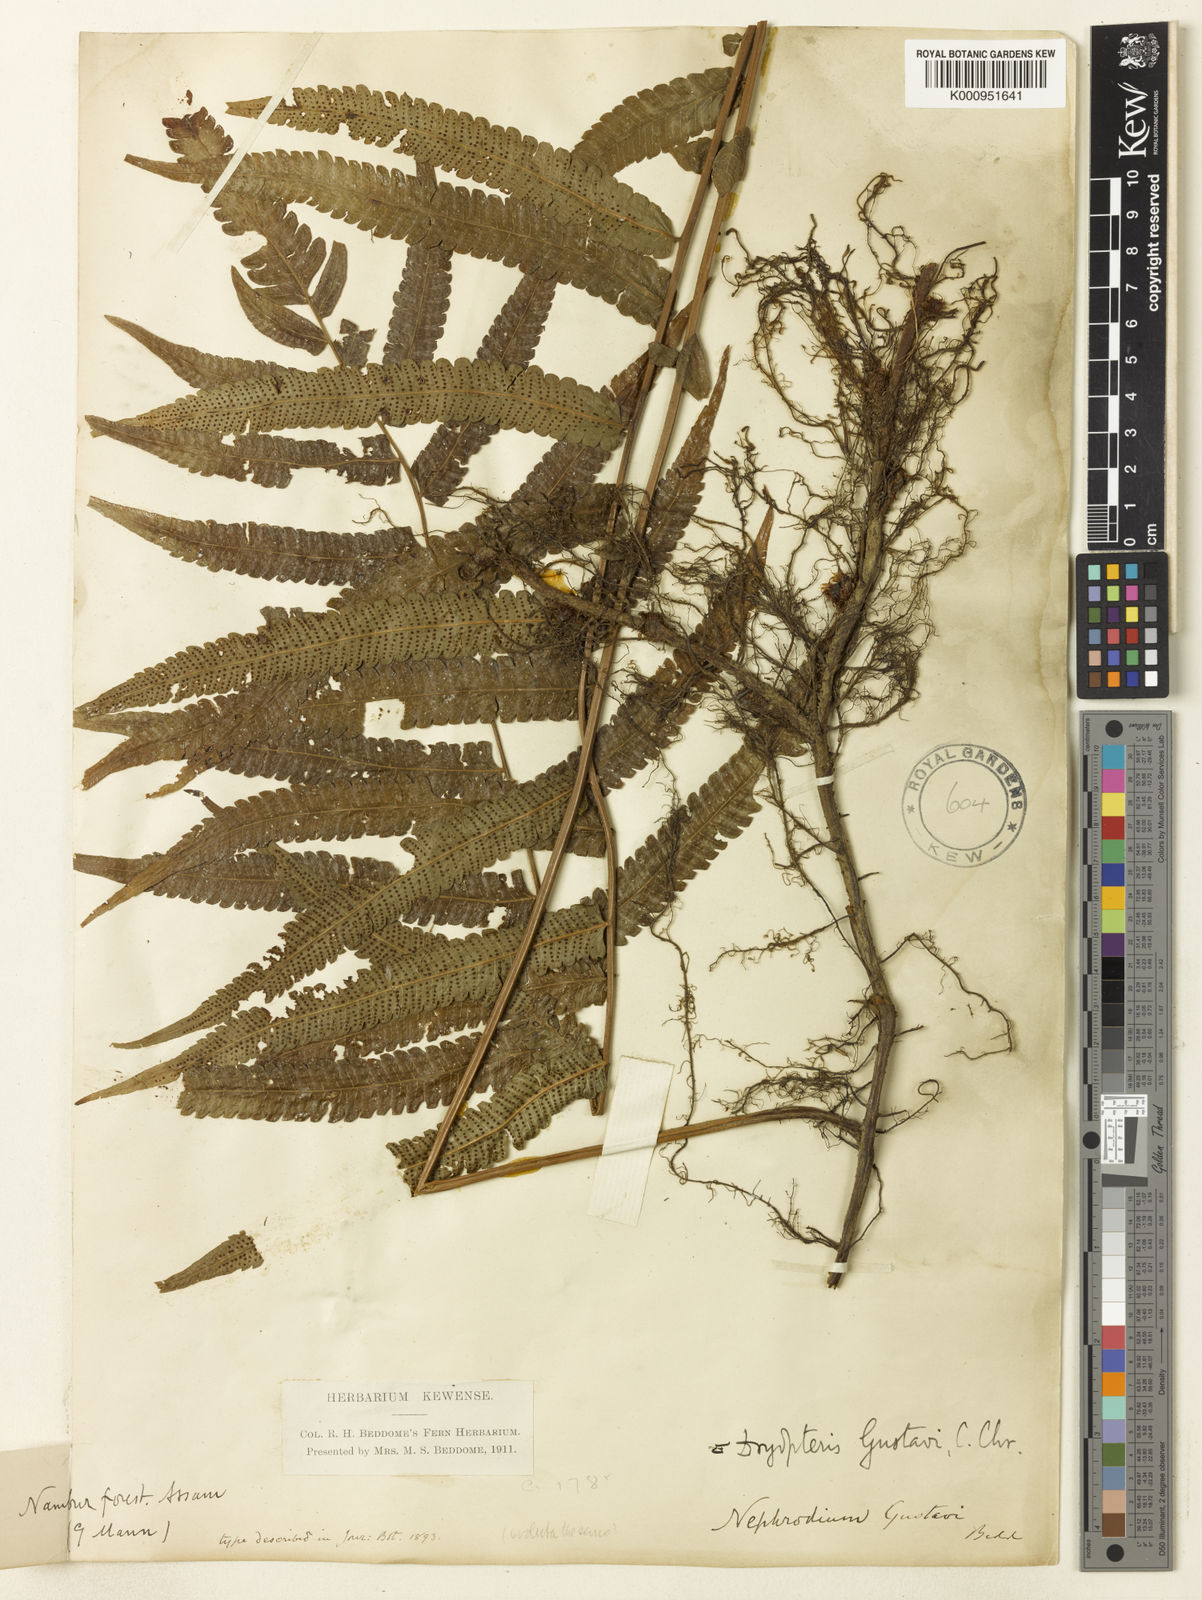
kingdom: Plantae
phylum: Tracheophyta
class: Polypodiopsida
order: Polypodiales
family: Thelypteridaceae
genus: Christella
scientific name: Christella gustavi
